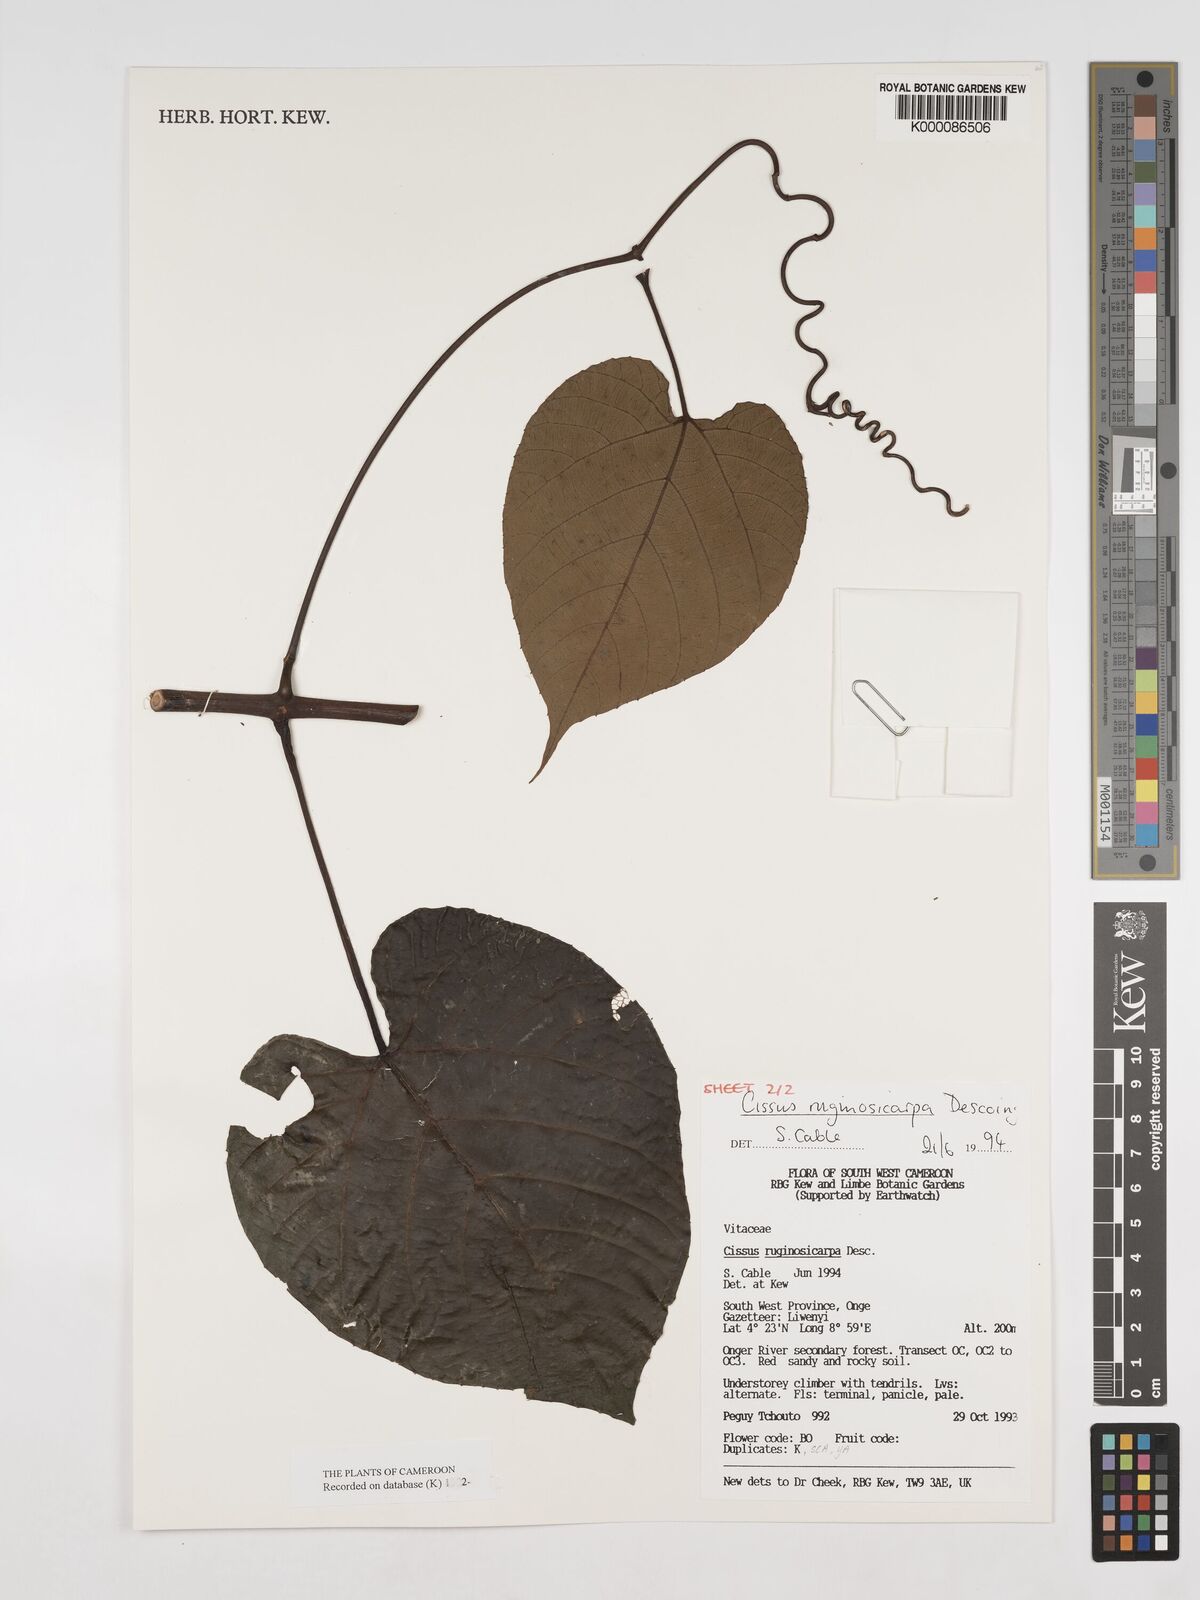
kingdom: Plantae
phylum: Tracheophyta
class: Magnoliopsida
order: Vitales
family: Vitaceae
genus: Cissus
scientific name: Cissus ruginosicarpa
